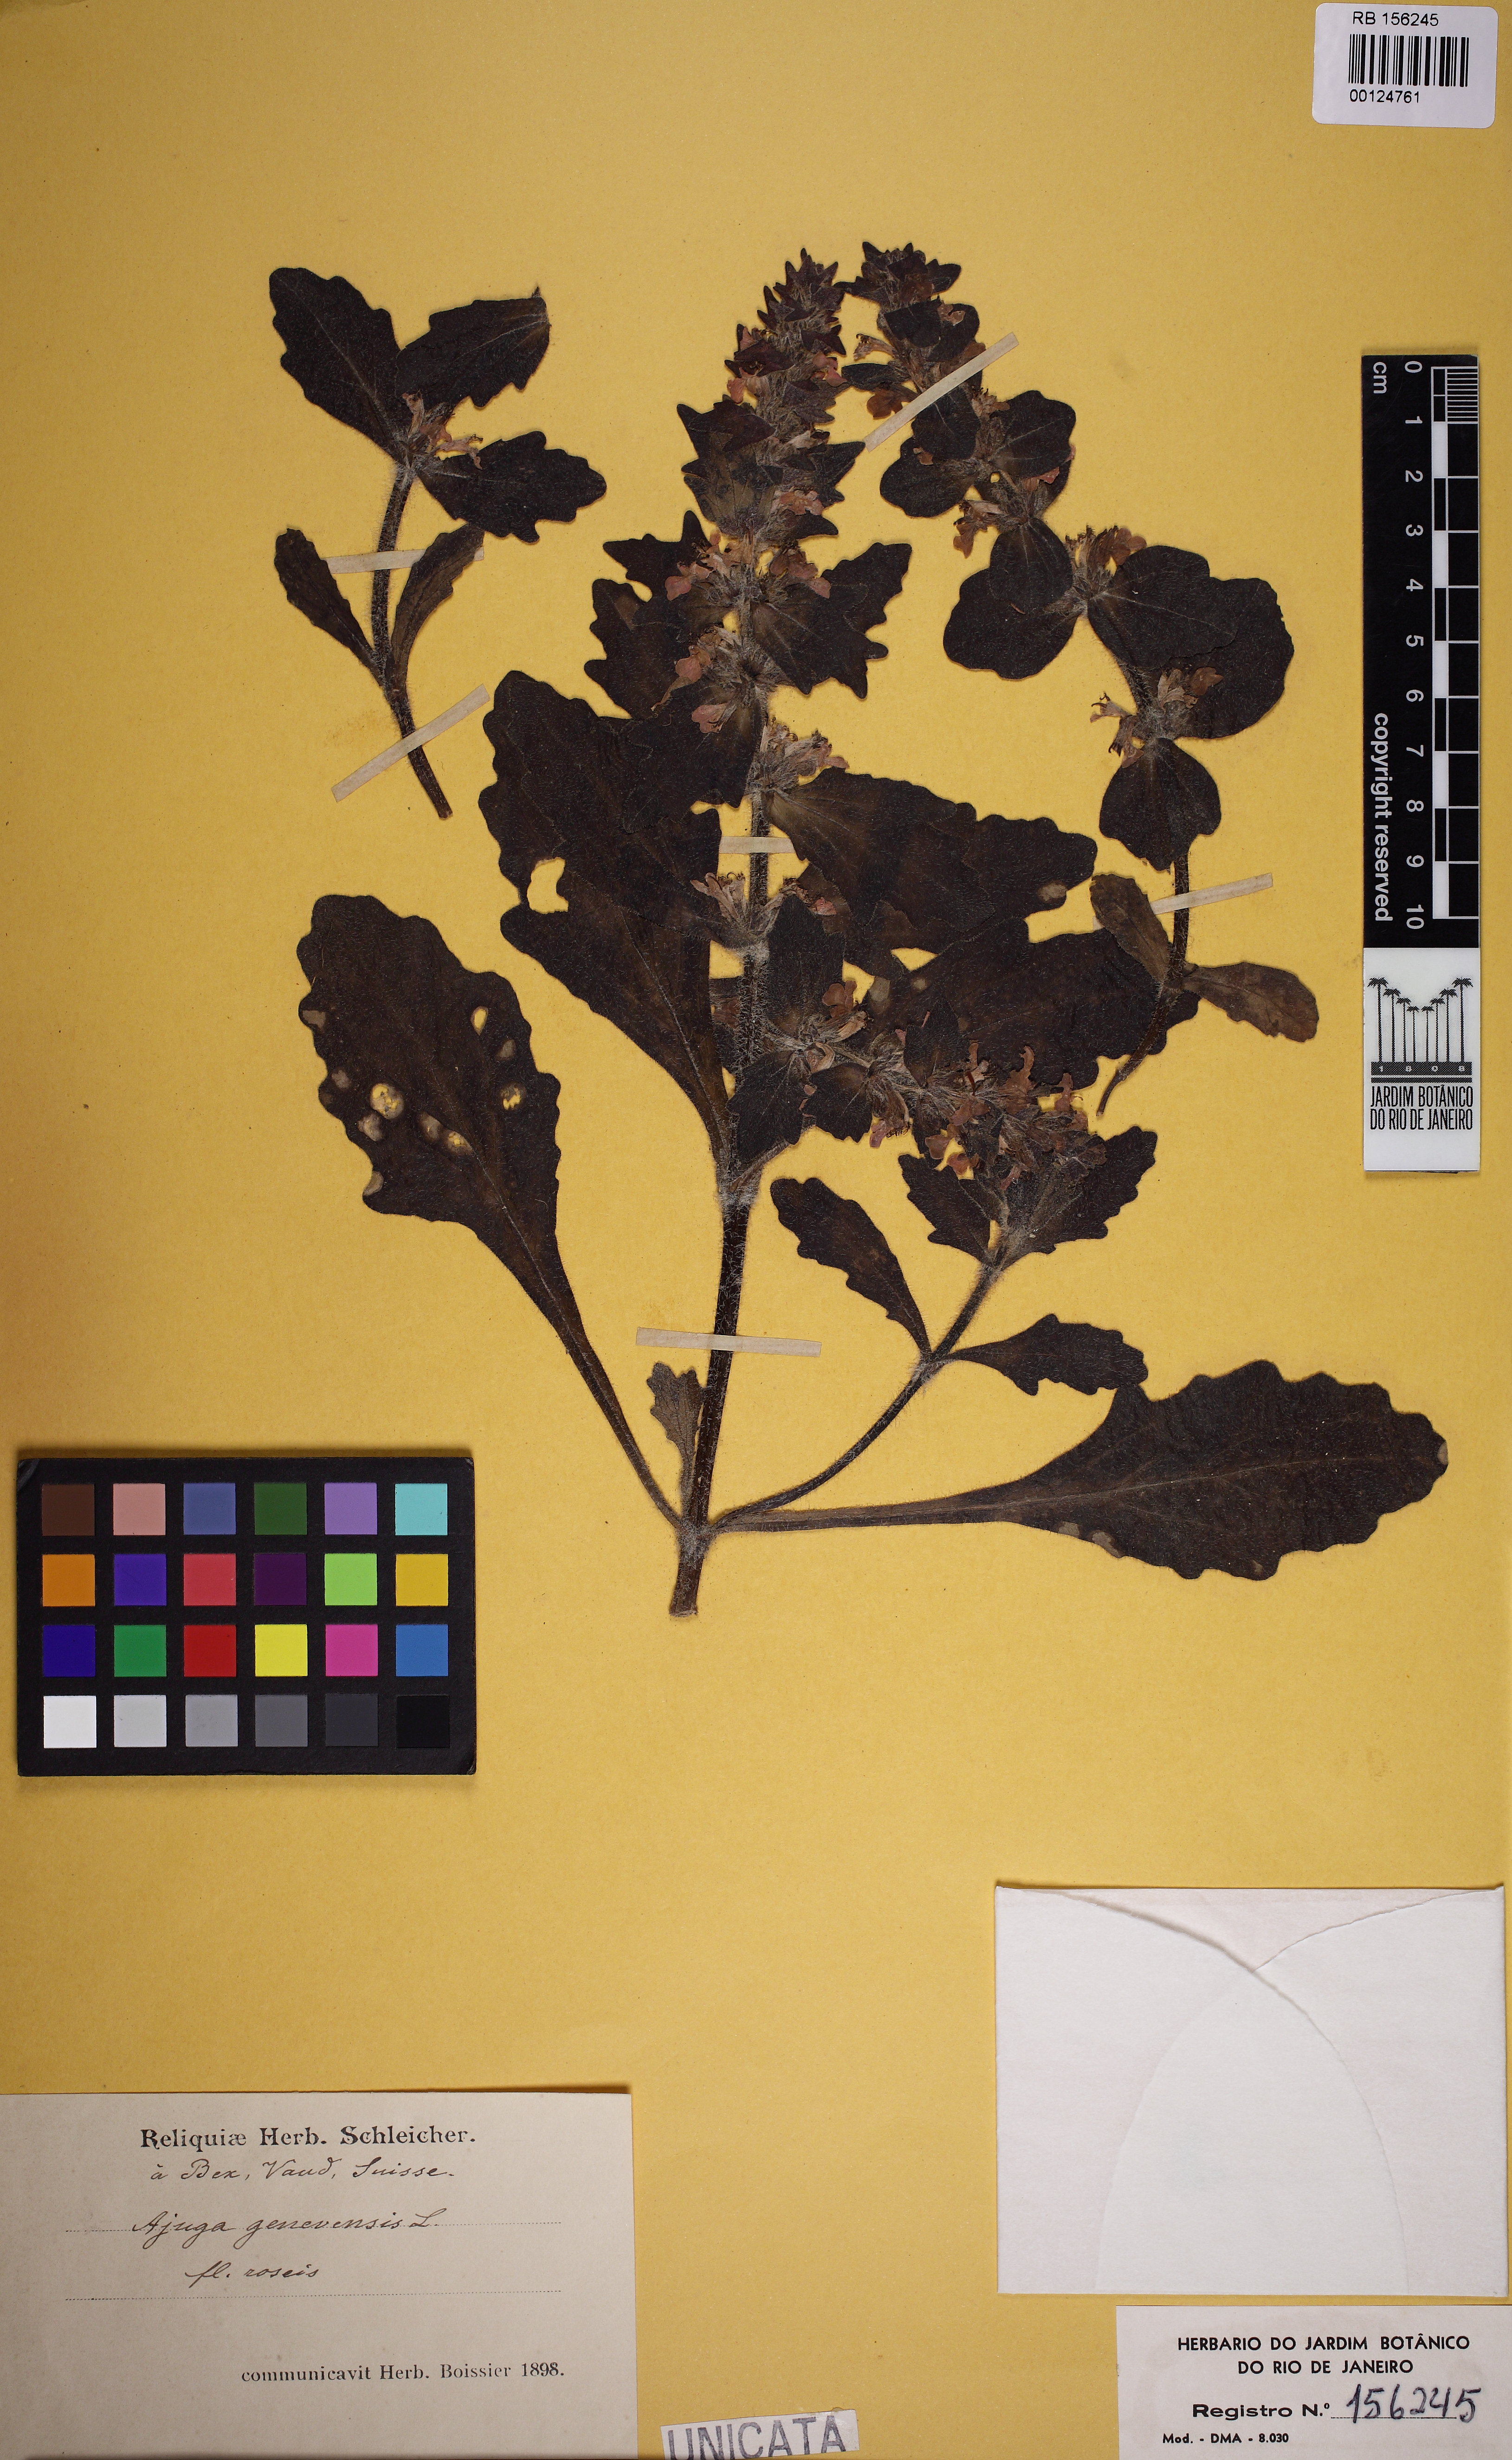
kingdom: Plantae
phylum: Tracheophyta
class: Magnoliopsida
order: Lamiales
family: Lamiaceae
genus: Ajuga
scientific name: Ajuga genevensis
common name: Blue bugle
